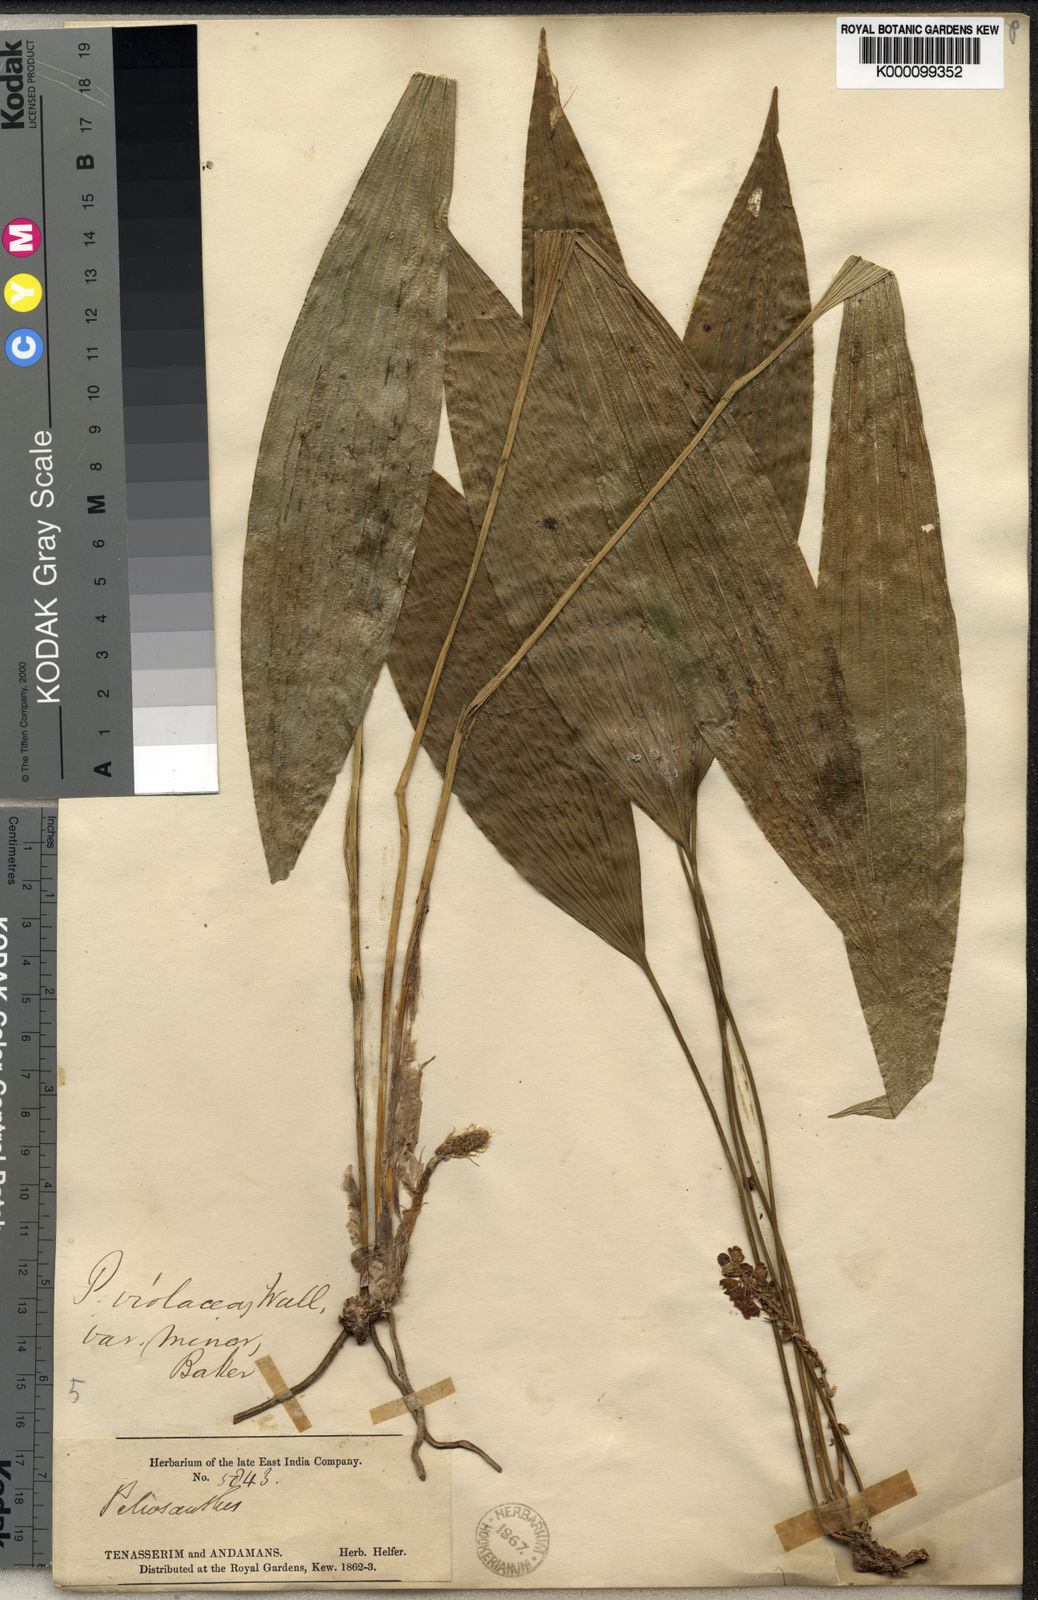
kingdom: Plantae
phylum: Tracheophyta
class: Liliopsida
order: Asparagales
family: Asparagaceae
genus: Peliosanthes
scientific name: Peliosanthes griffithii
